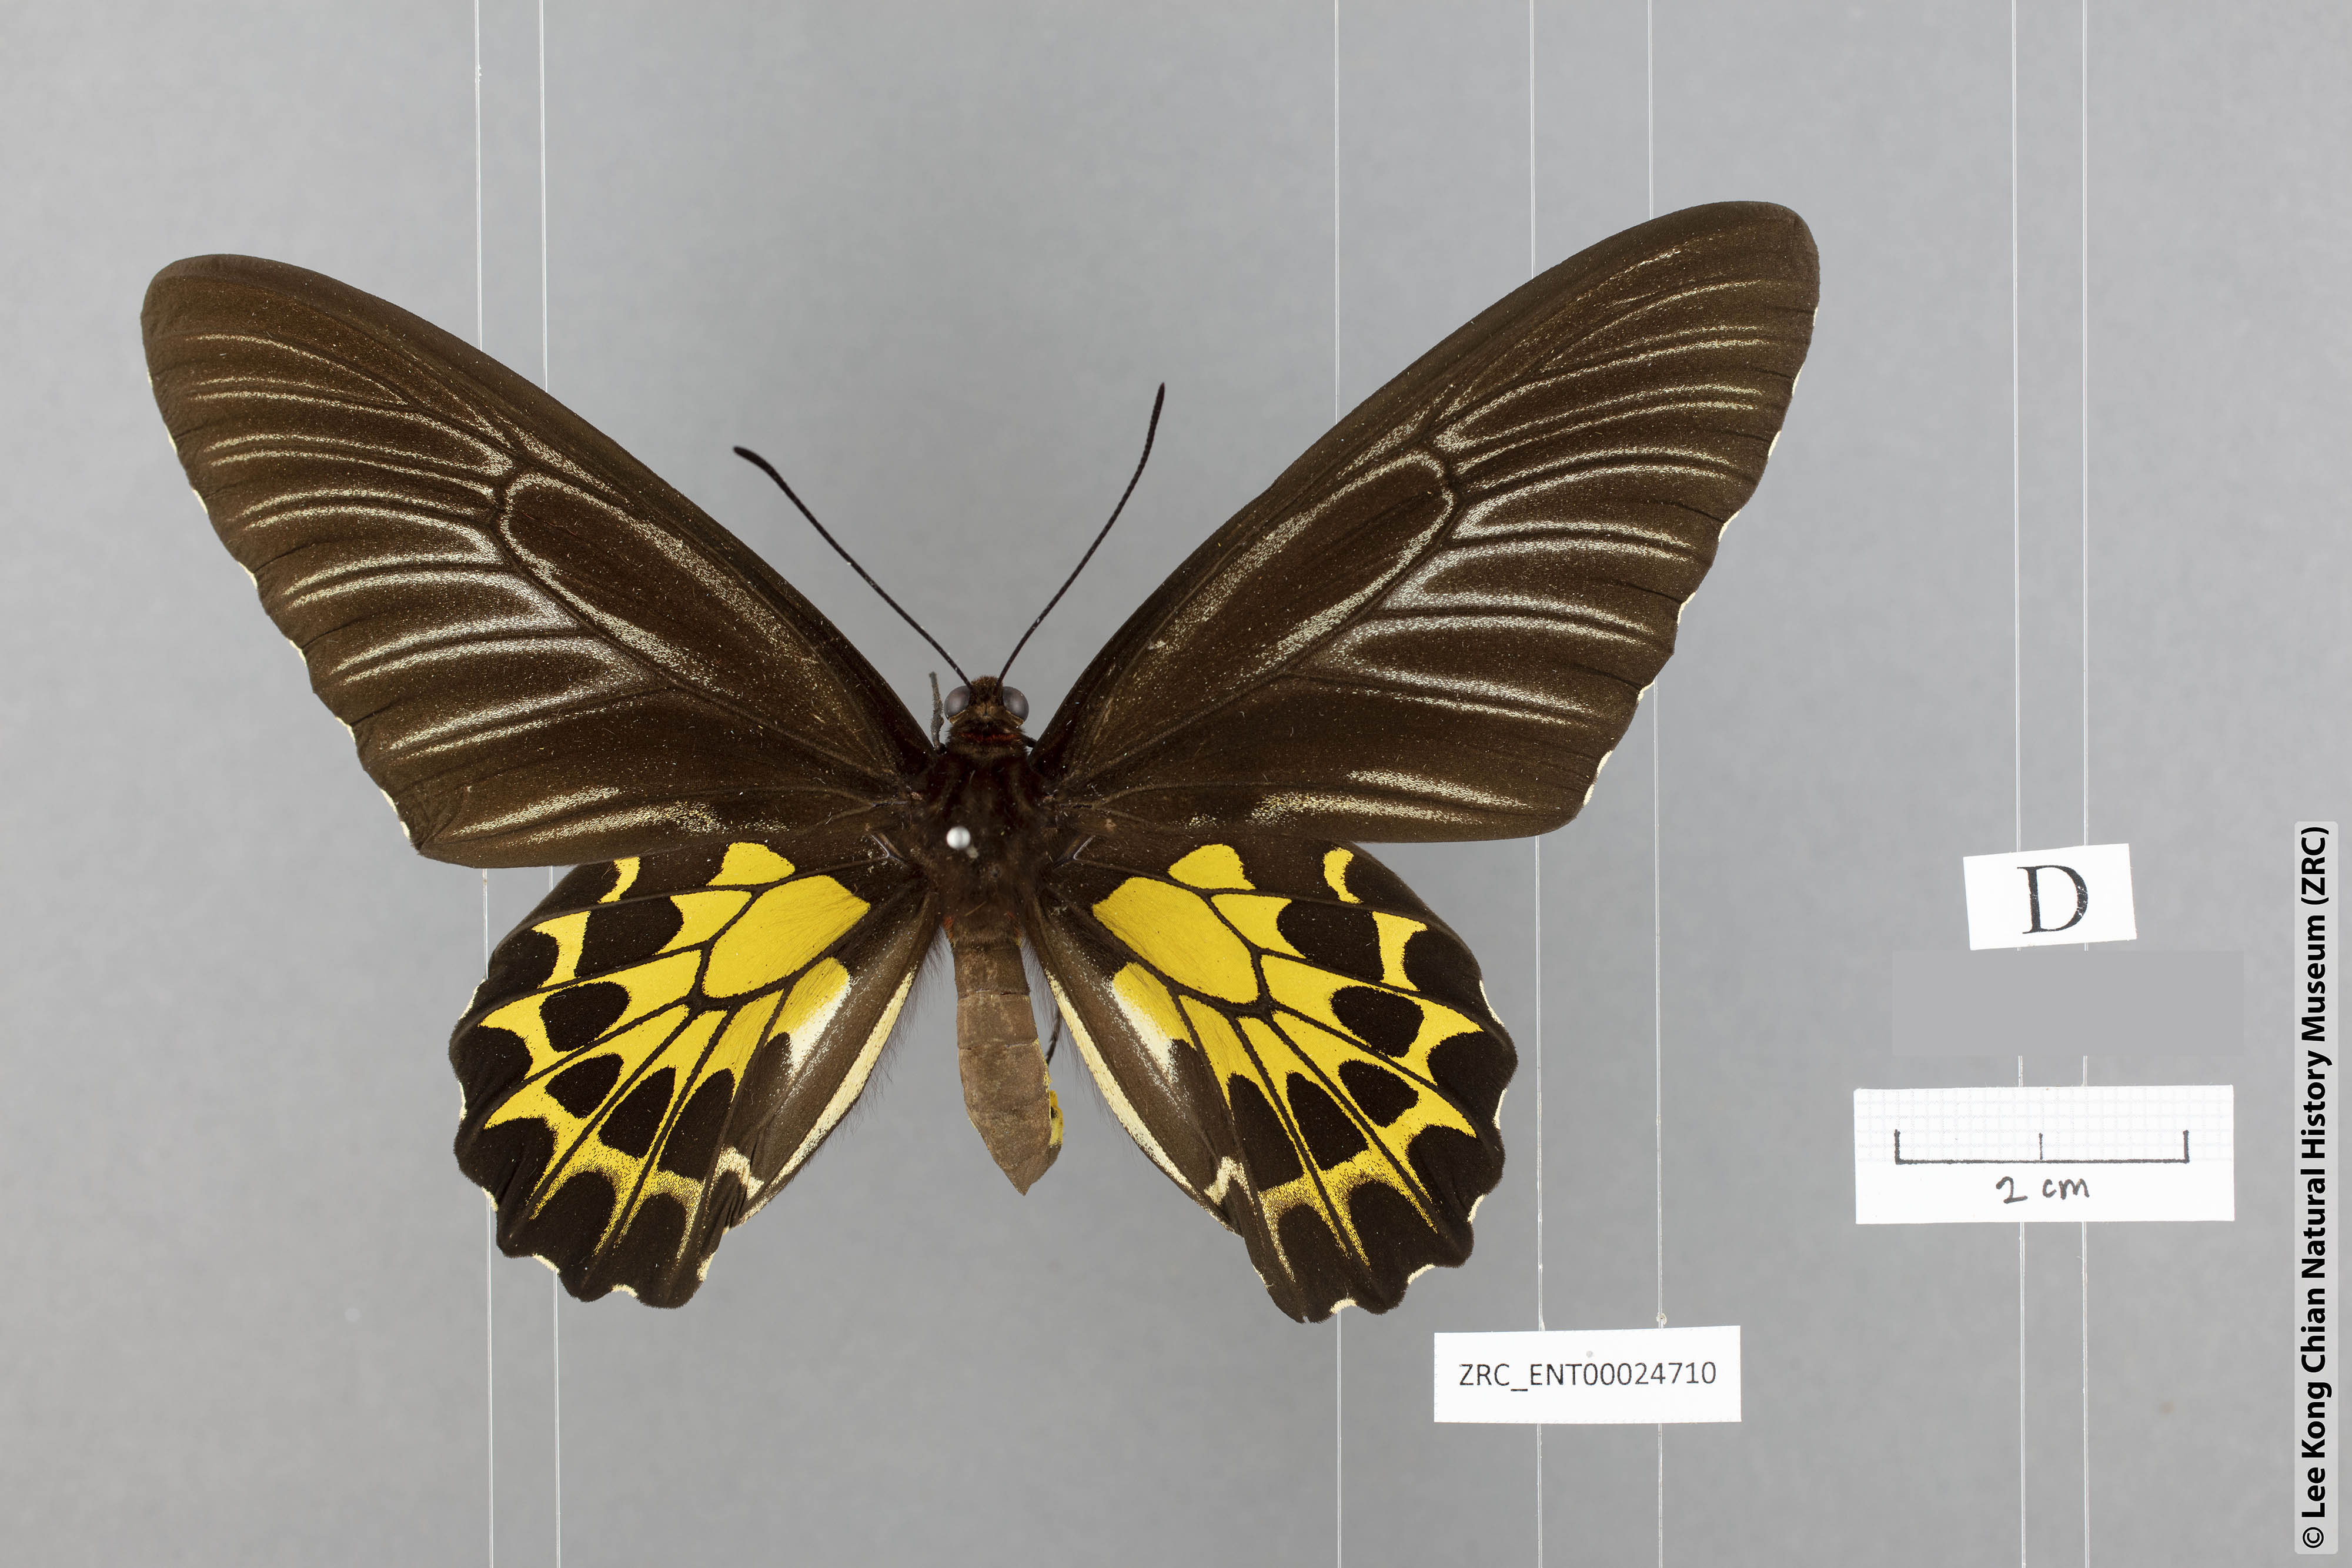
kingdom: Animalia
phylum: Arthropoda
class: Insecta
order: Lepidoptera
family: Papilionidae
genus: Troides
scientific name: Troides aeacus
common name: Golden birdwing
